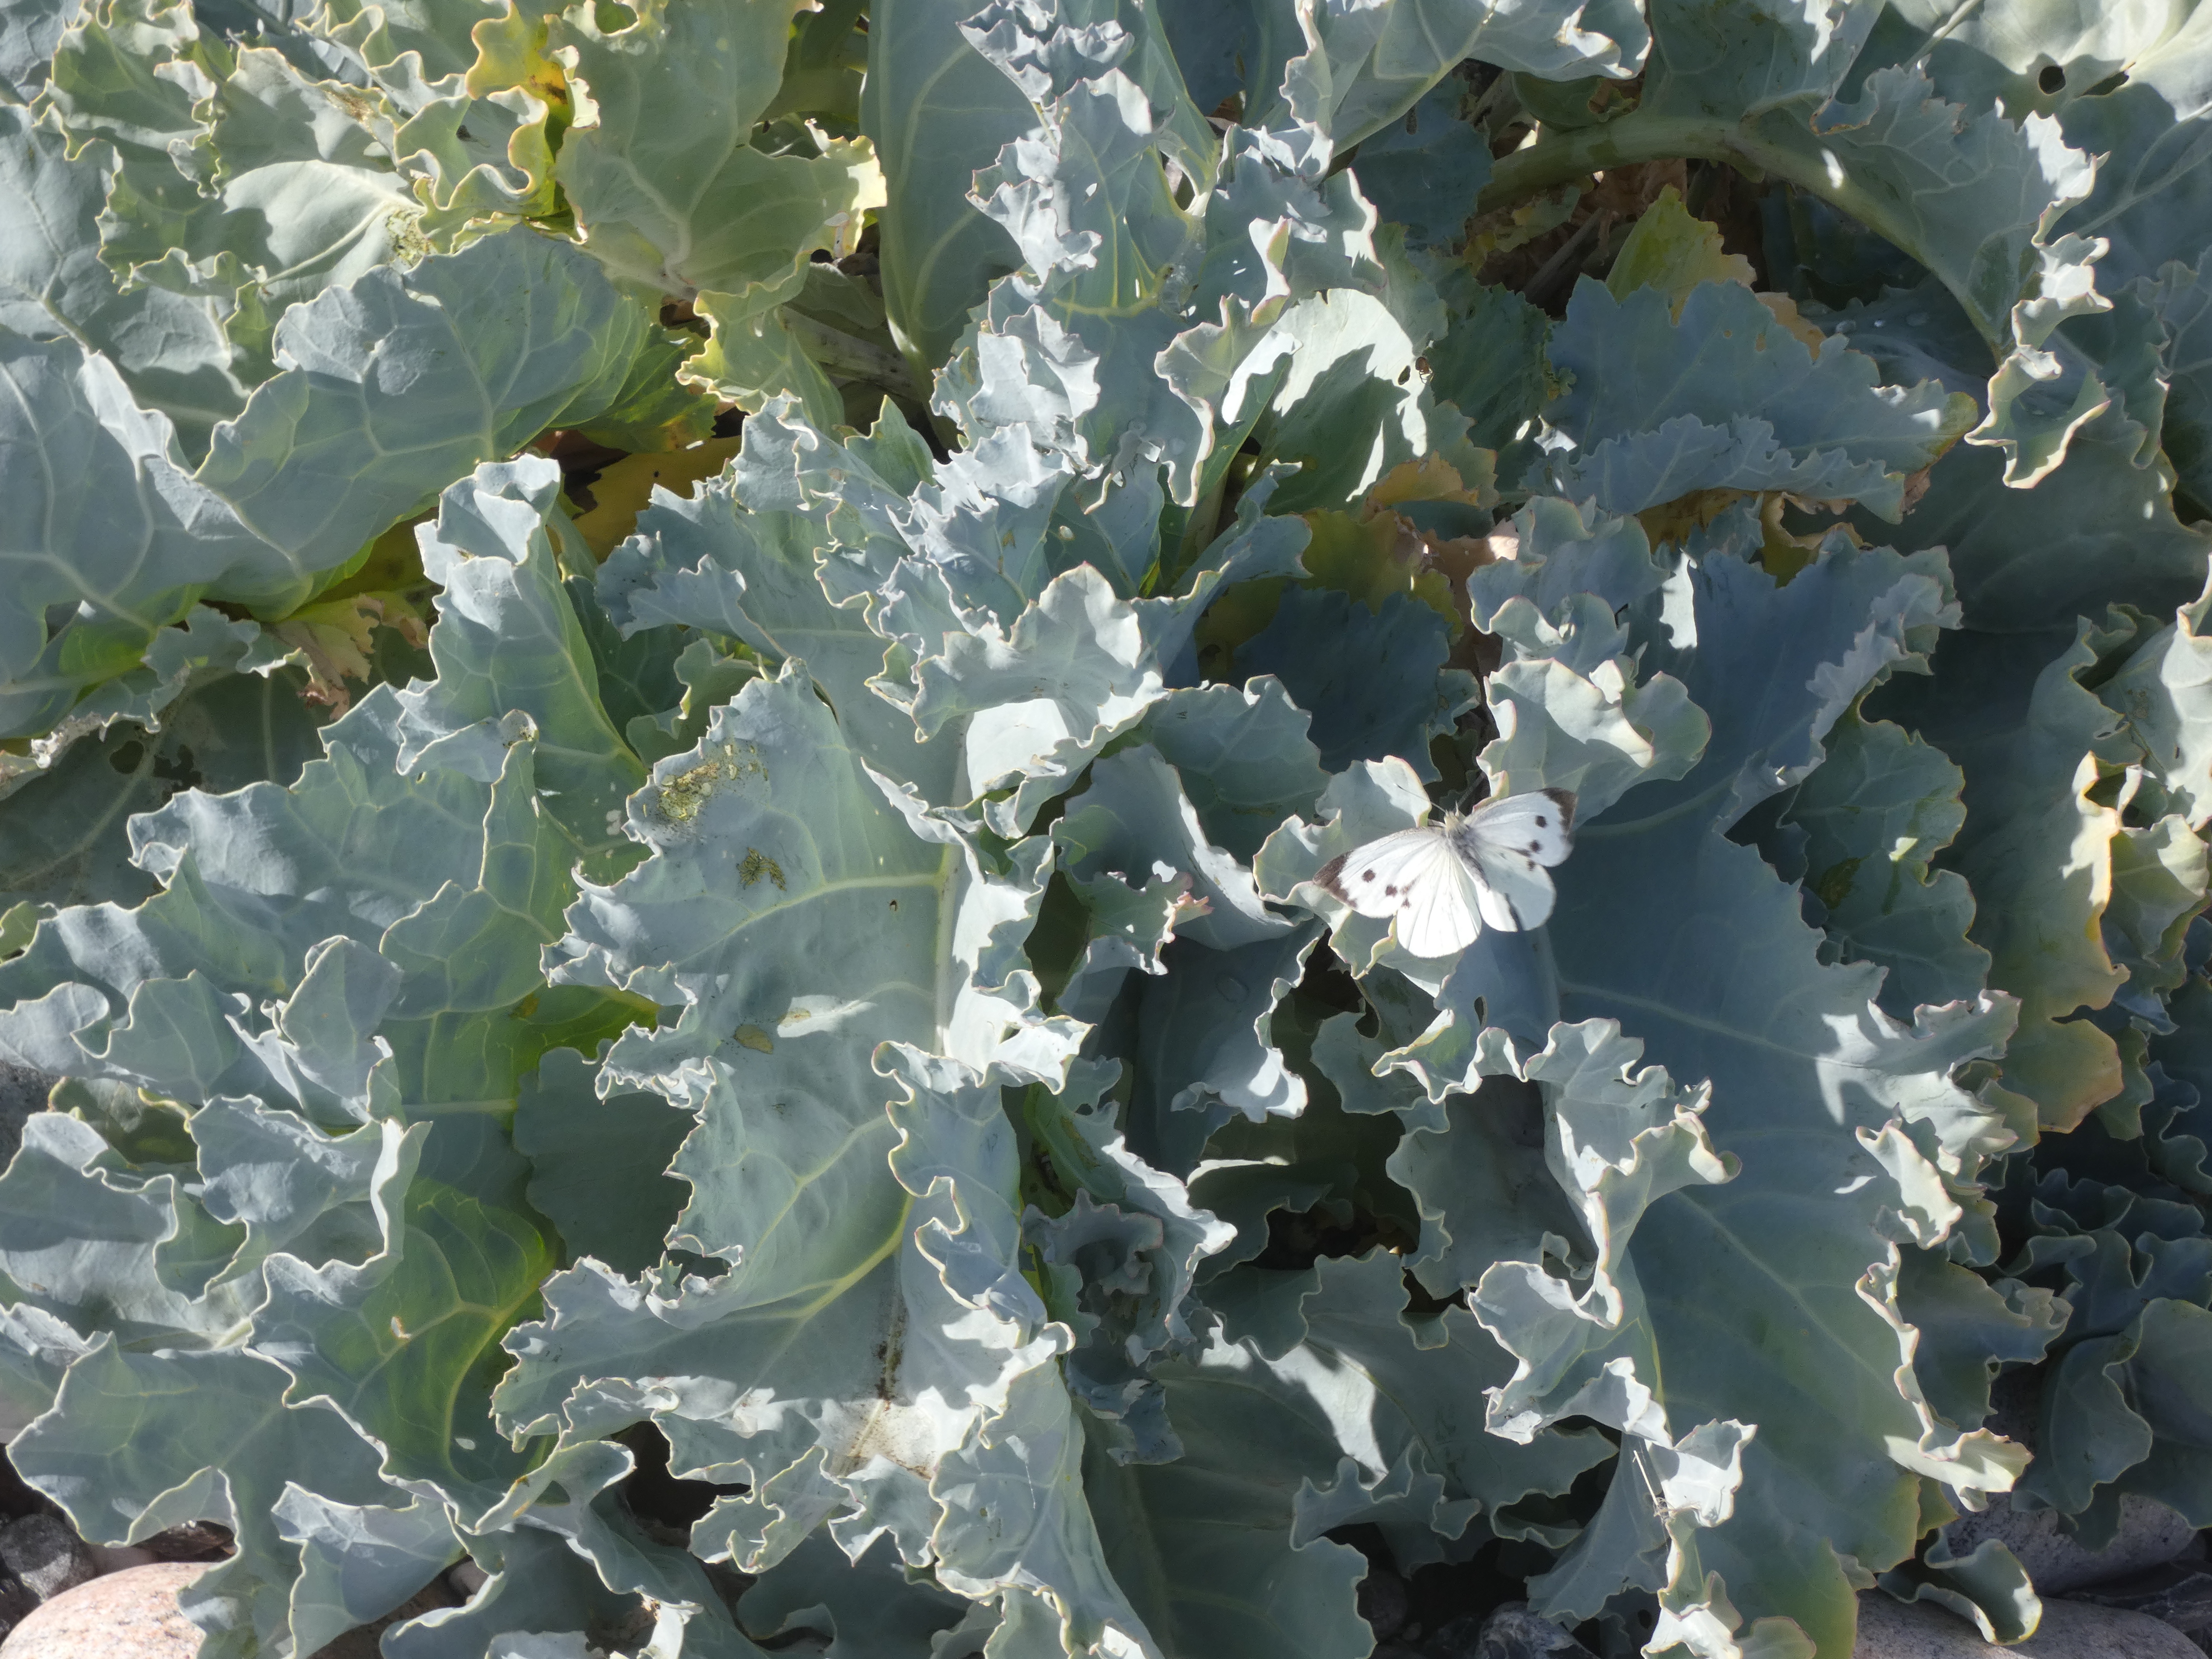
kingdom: Animalia
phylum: Arthropoda
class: Insecta
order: Lepidoptera
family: Pieridae
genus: Pieris
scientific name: Pieris brassicae
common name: Stor kålsommerfugl
